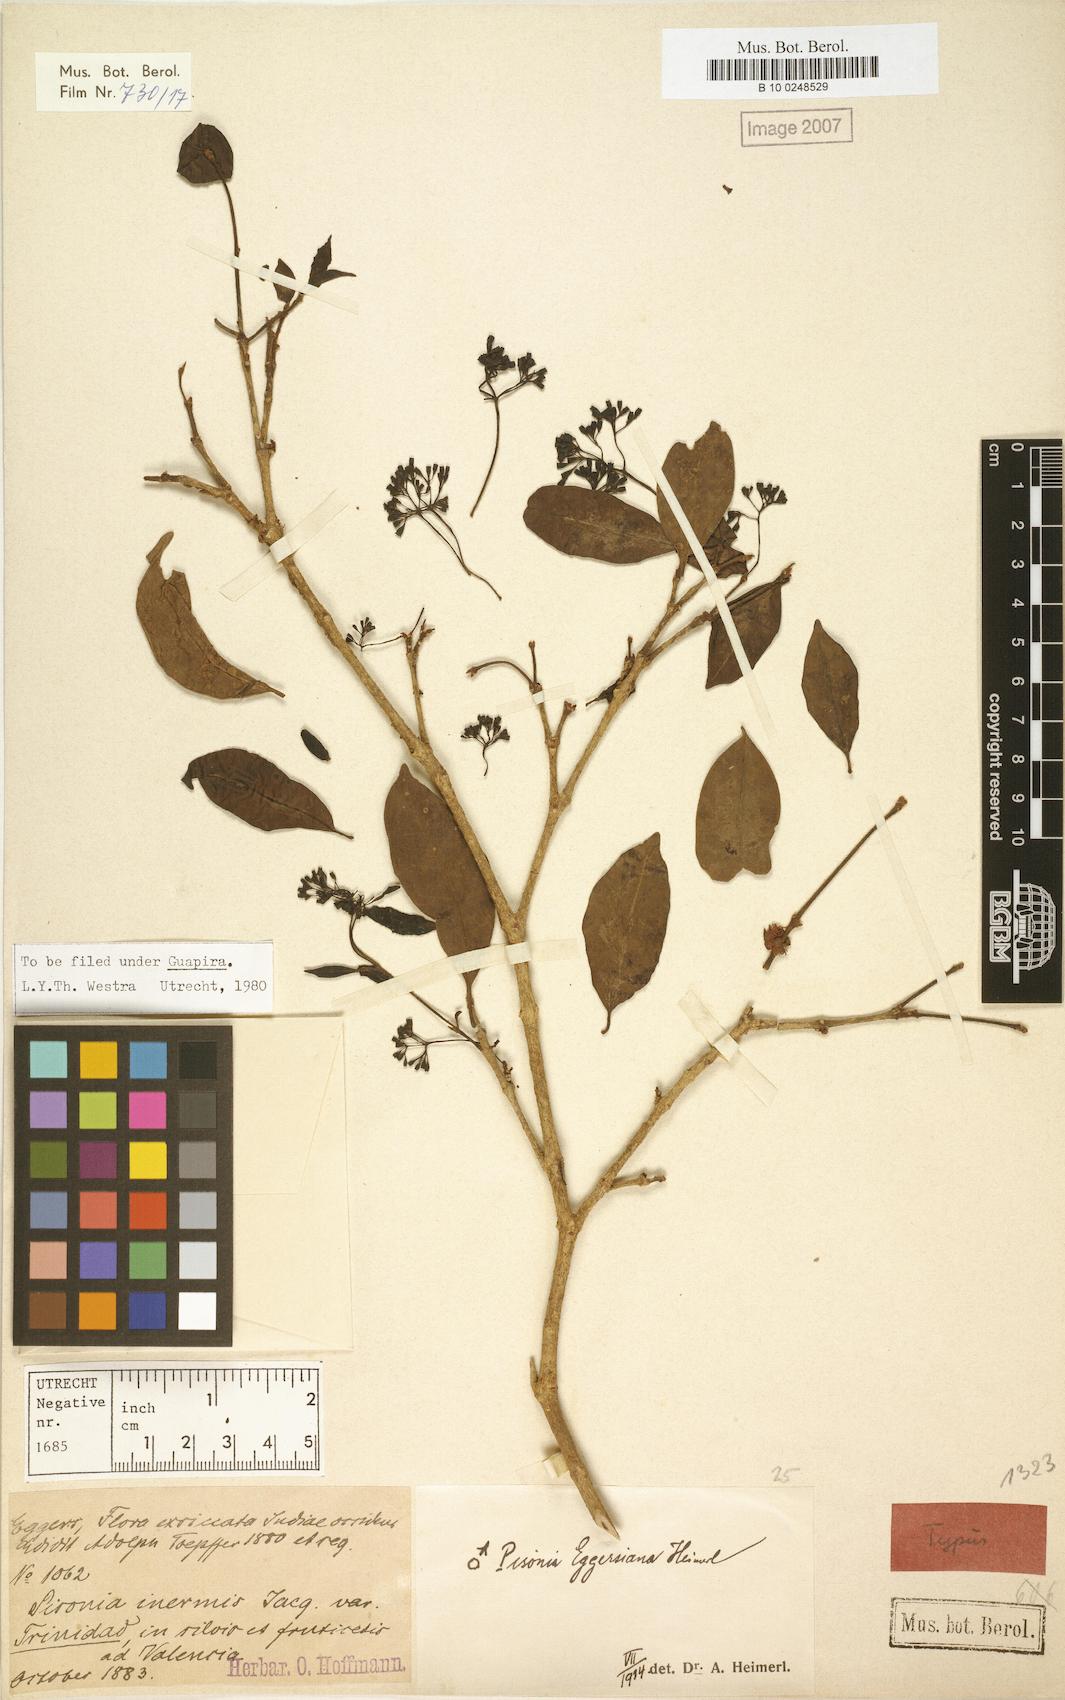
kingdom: Plantae
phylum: Tracheophyta
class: Magnoliopsida
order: Caryophyllales
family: Nyctaginaceae
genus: Guapira
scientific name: Guapira eggersiana
